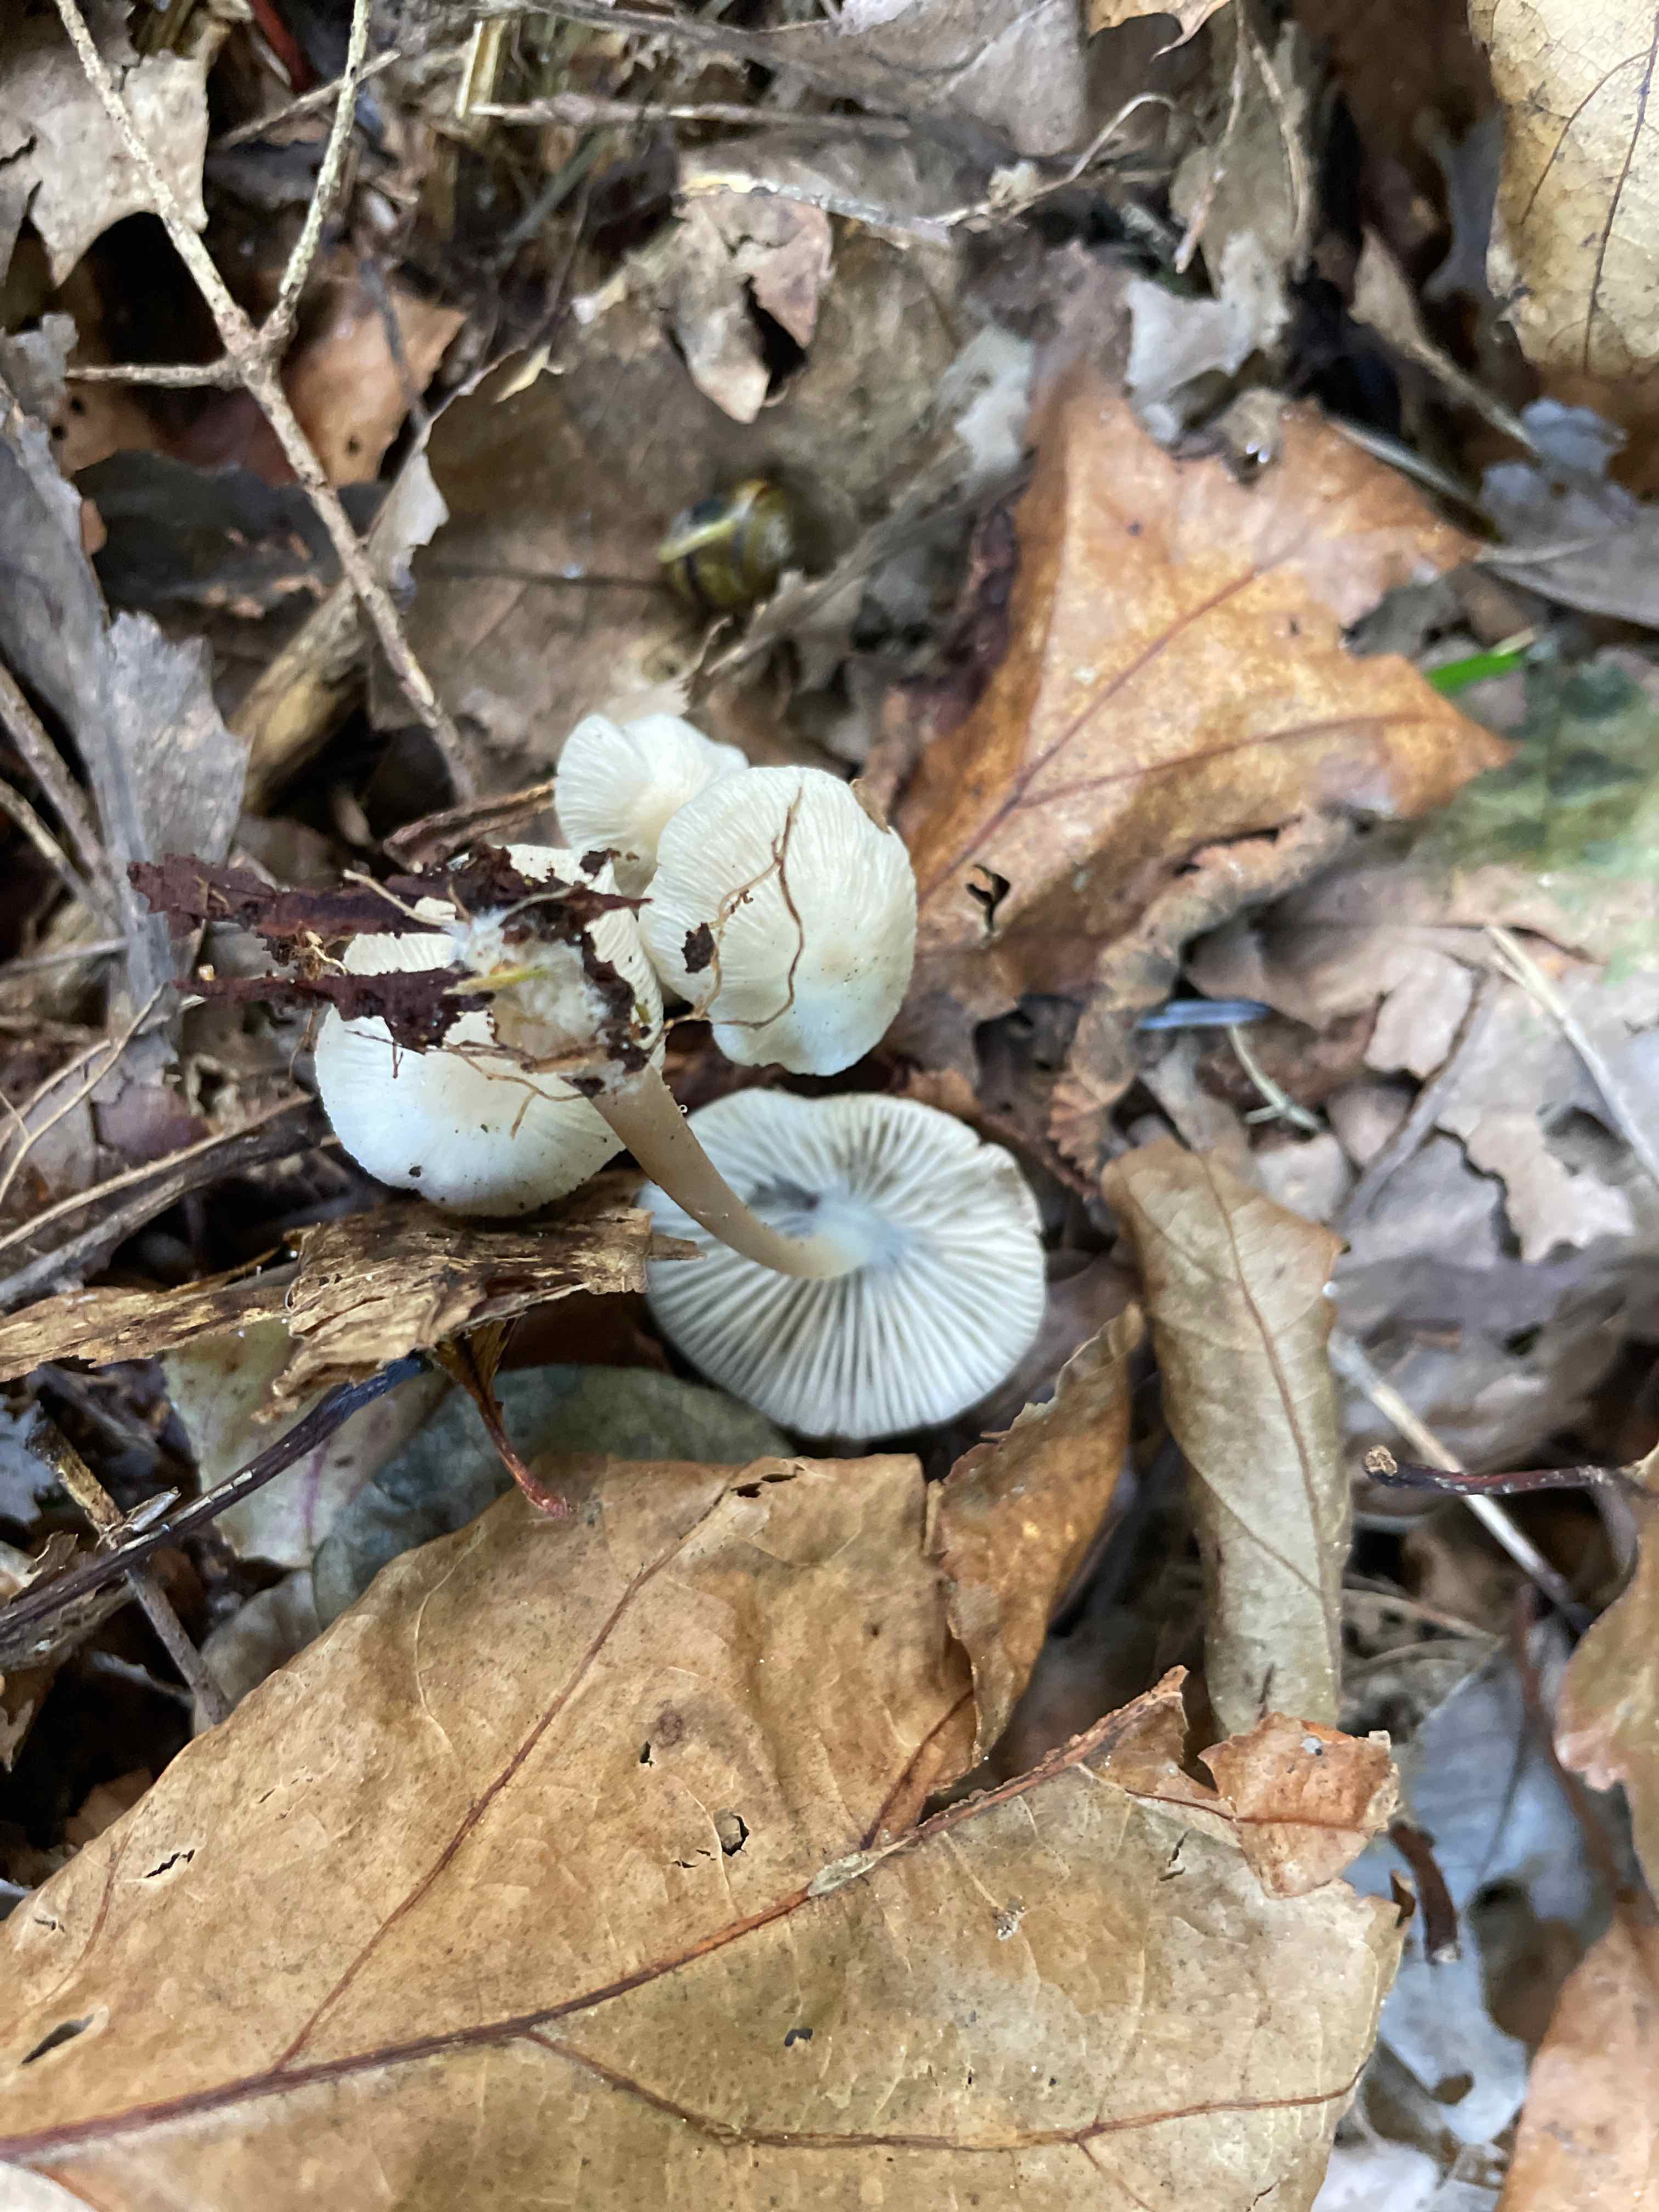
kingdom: Fungi
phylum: Basidiomycota
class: Agaricomycetes
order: Agaricales
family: Mycenaceae
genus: Mycena
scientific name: Mycena
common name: huesvamp
